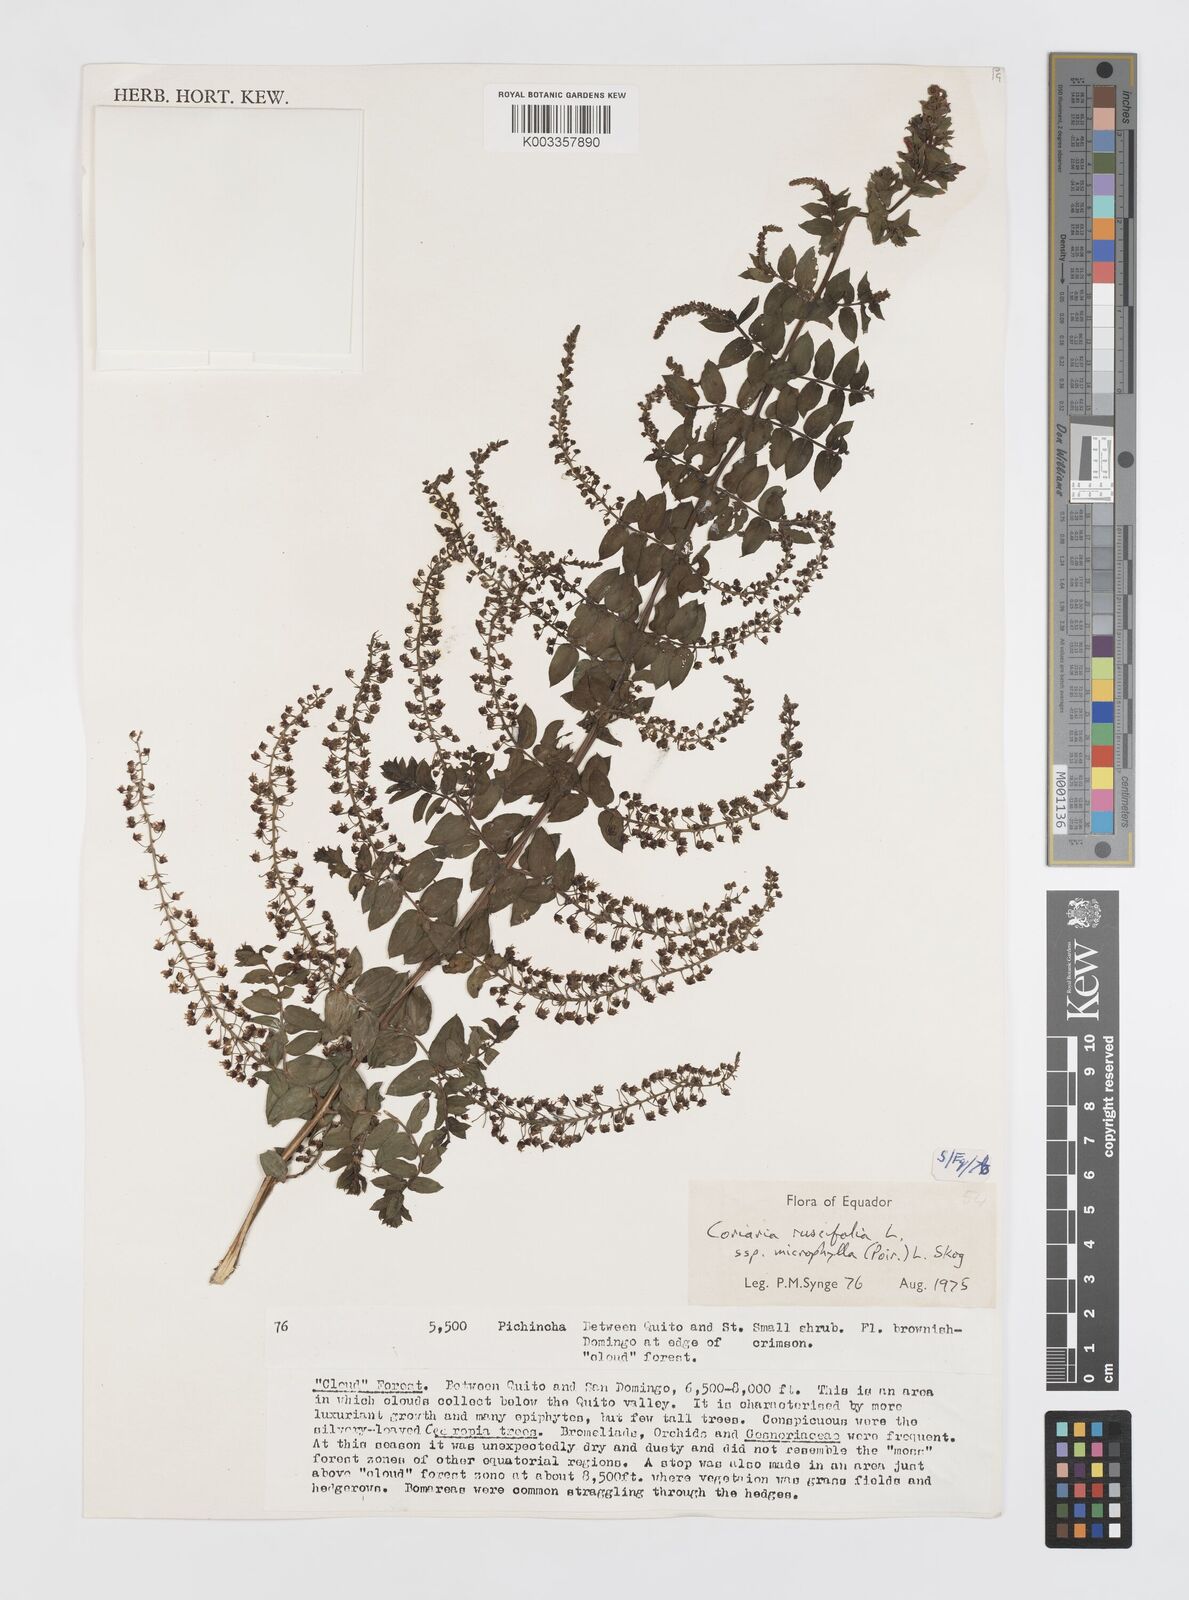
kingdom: Plantae
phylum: Tracheophyta
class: Magnoliopsida
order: Cucurbitales
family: Coriariaceae
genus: Coriaria
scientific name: Coriaria microphylla
